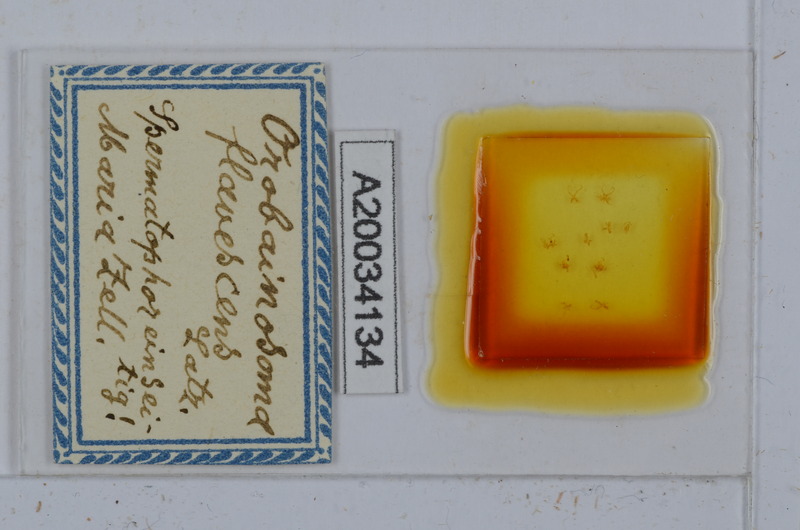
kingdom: Animalia
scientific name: Animalia
